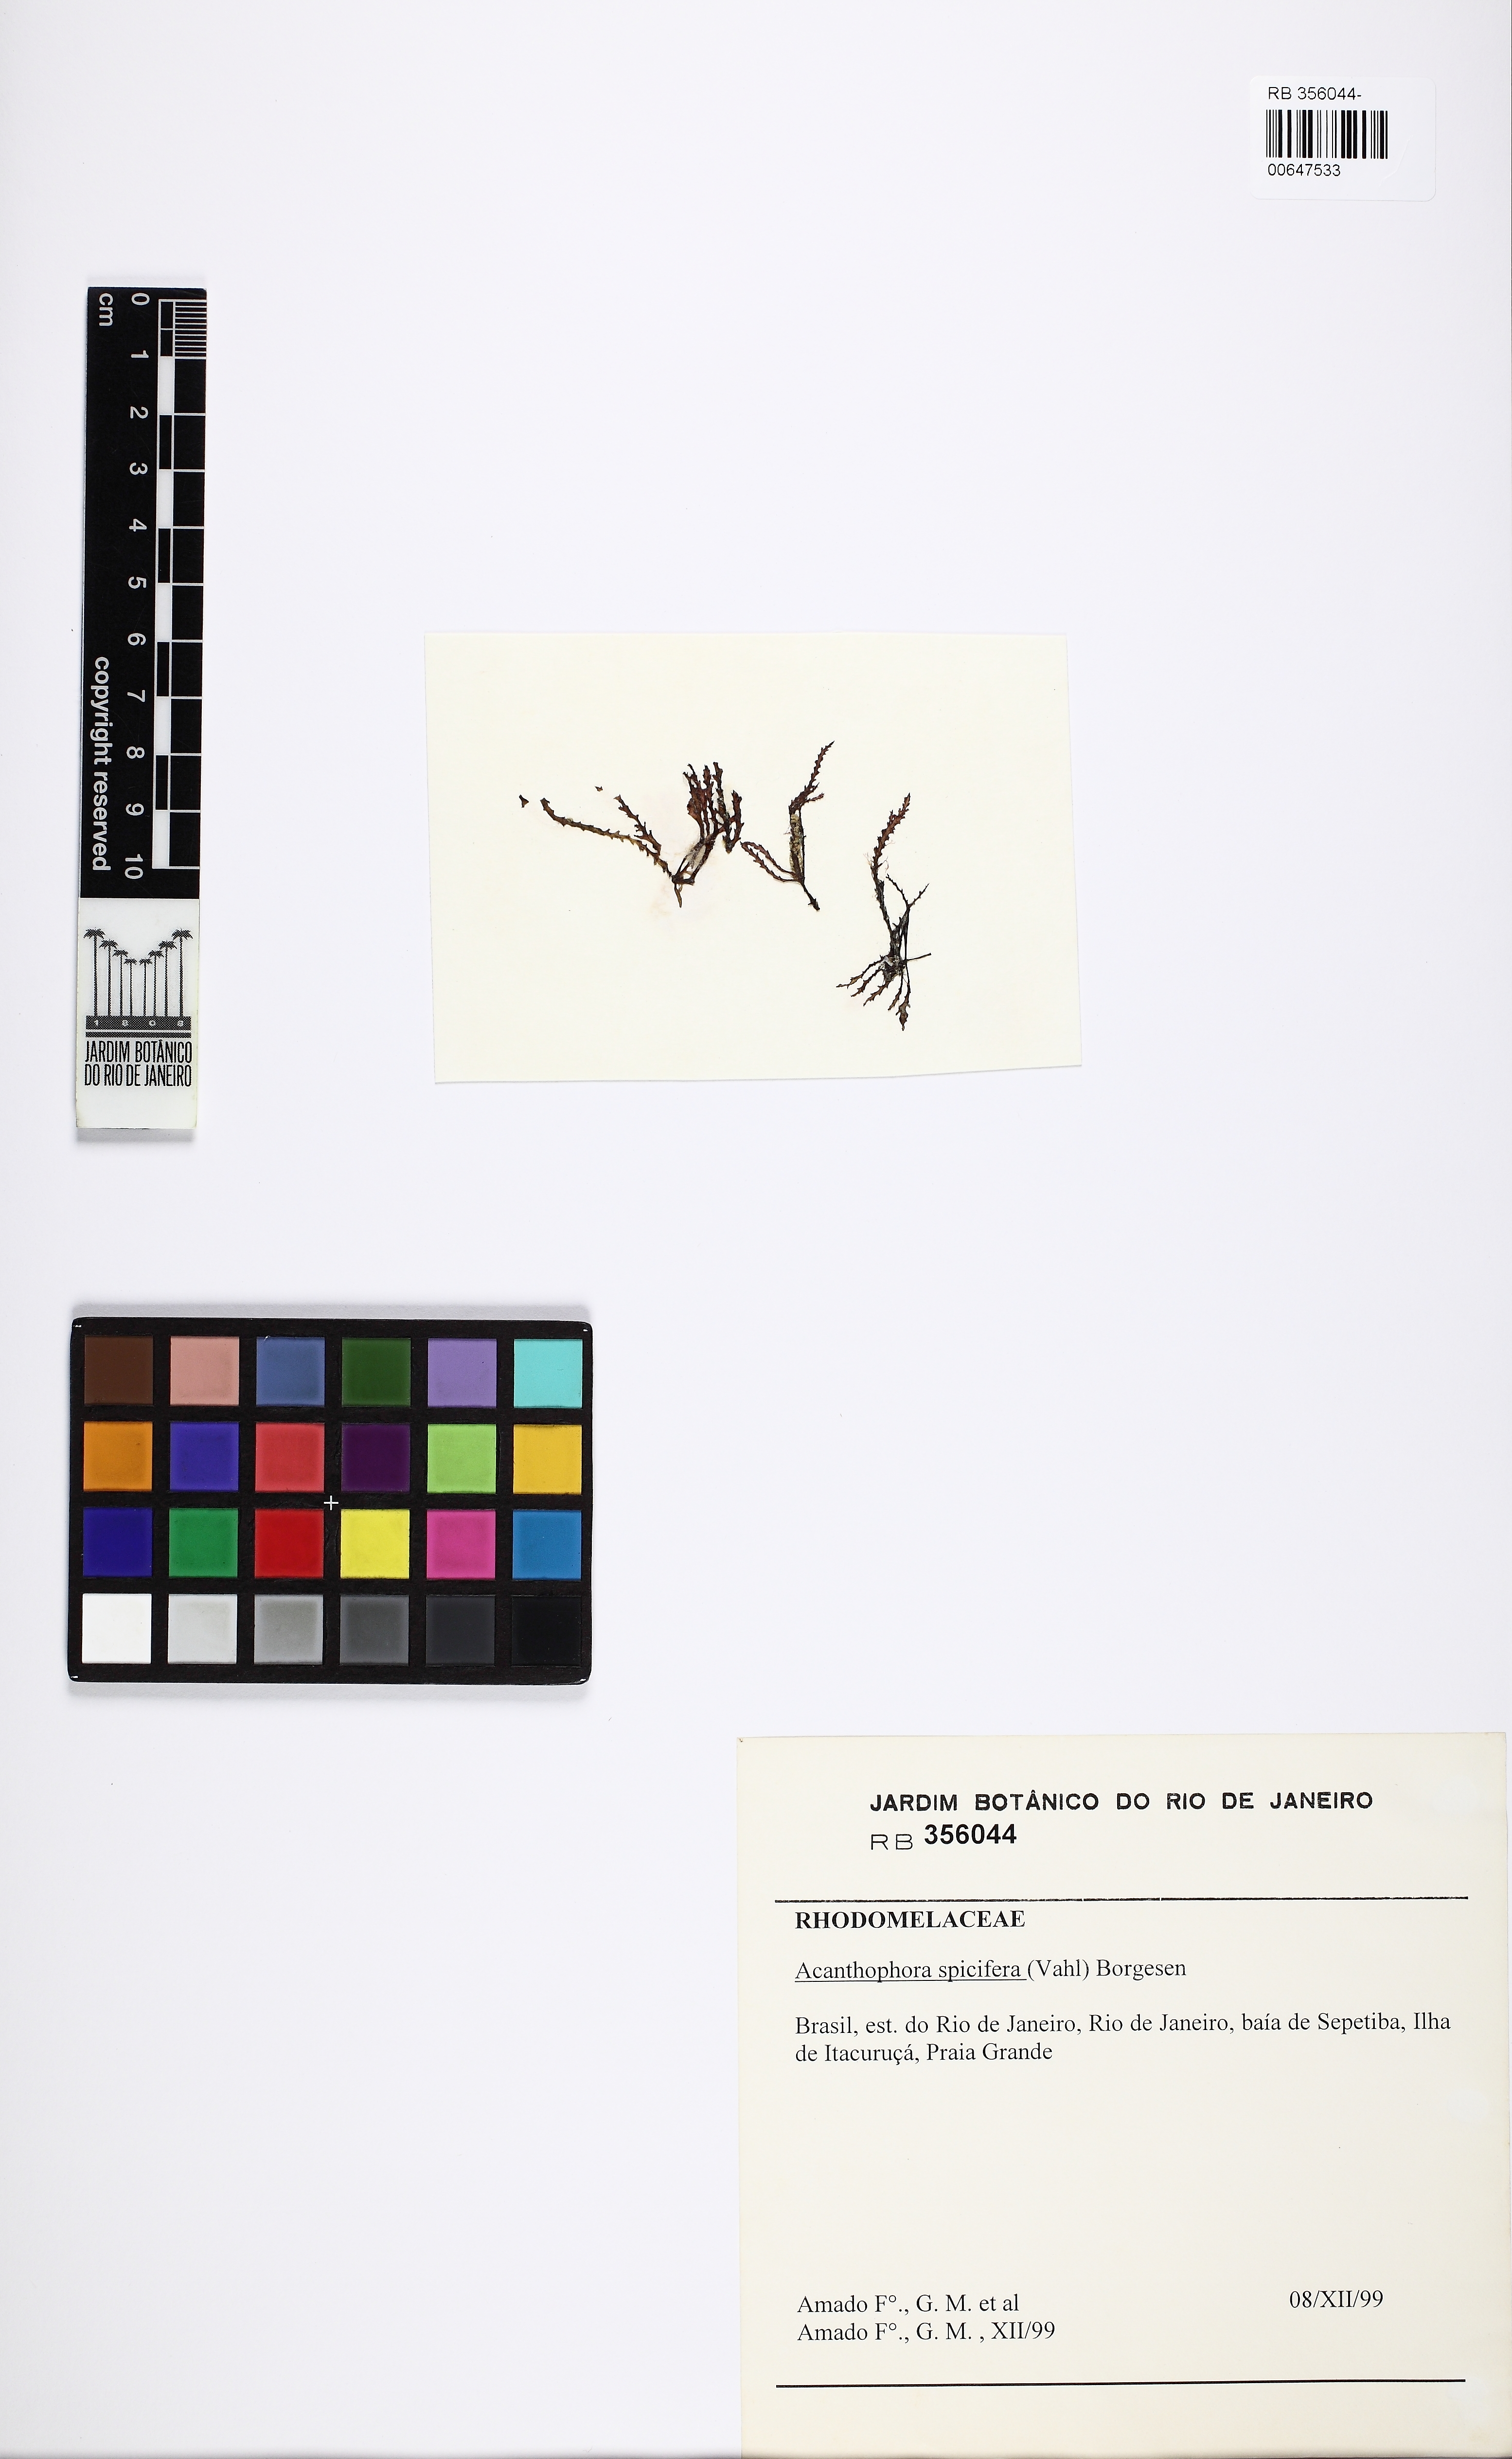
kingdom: Plantae
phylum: Rhodophyta
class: Florideophyceae
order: Ceramiales
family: Rhodomelaceae
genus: Acanthophora
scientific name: Acanthophora spicifera
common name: Red algae
